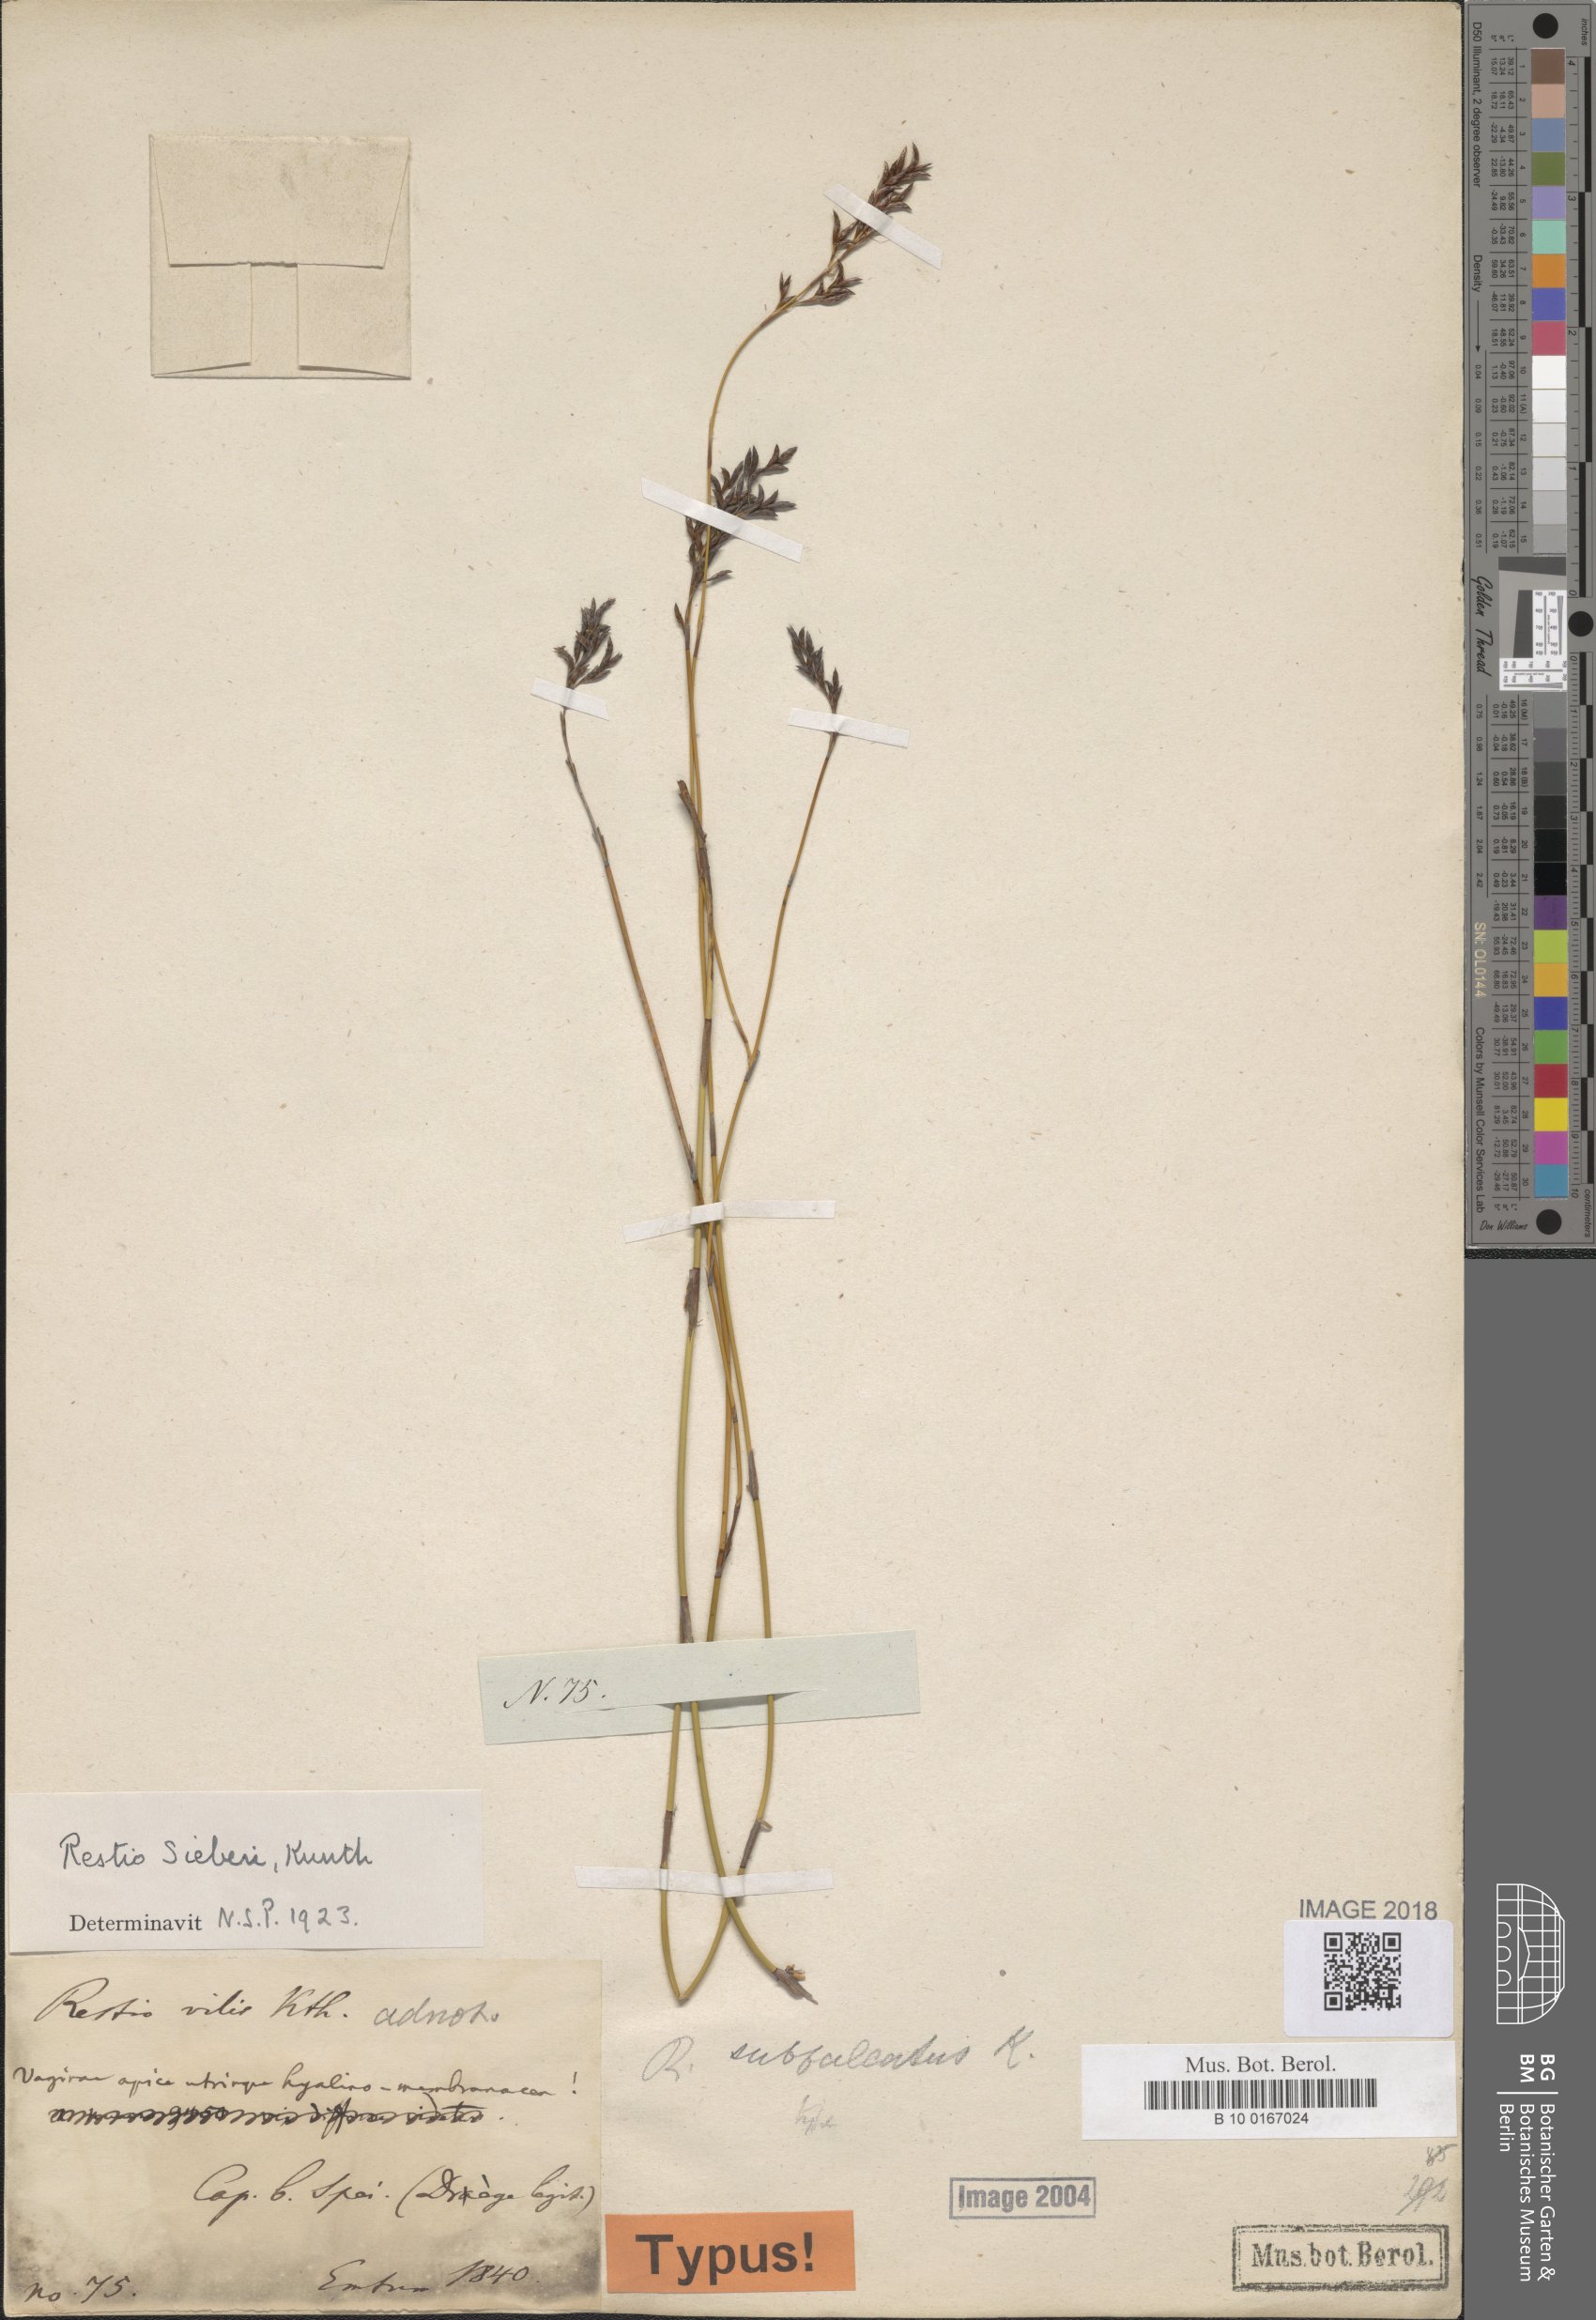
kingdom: Plantae
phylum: Tracheophyta
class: Liliopsida
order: Poales
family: Restionaceae
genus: Restio
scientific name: Restio sieberi
